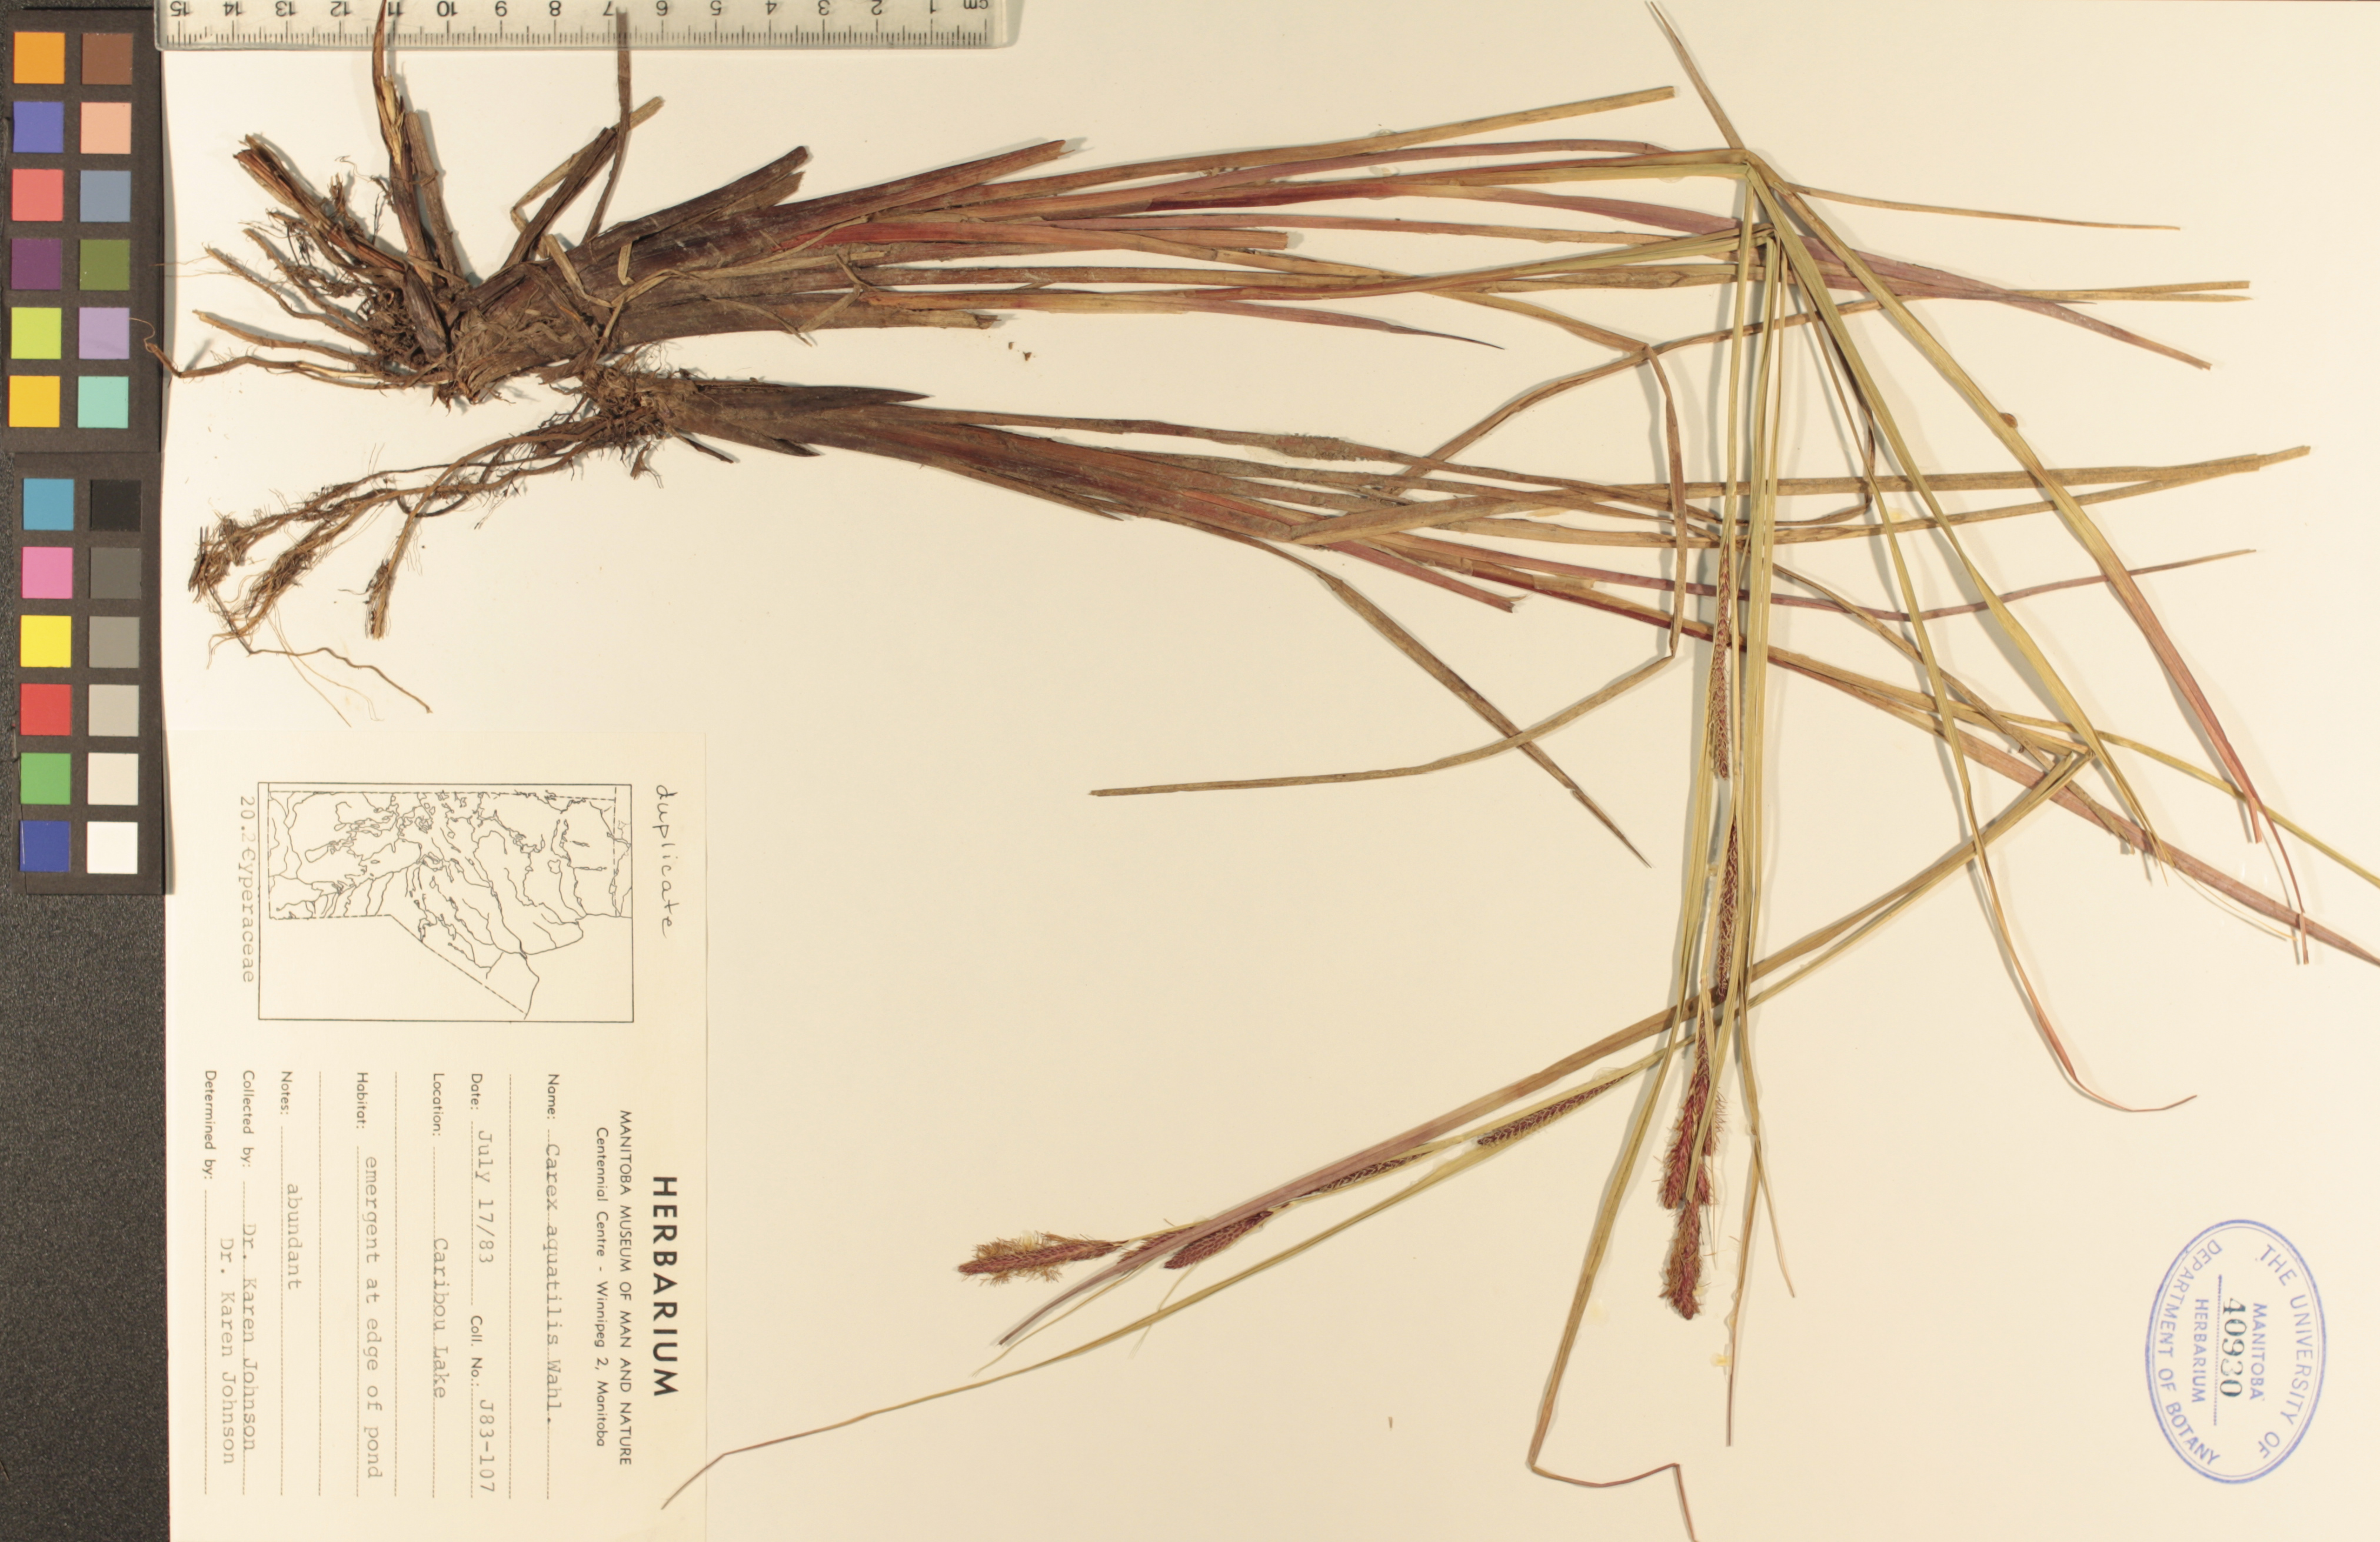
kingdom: Plantae
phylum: Tracheophyta
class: Liliopsida
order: Poales
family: Cyperaceae
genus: Carex
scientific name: Carex aquatilis
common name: Water sedge
